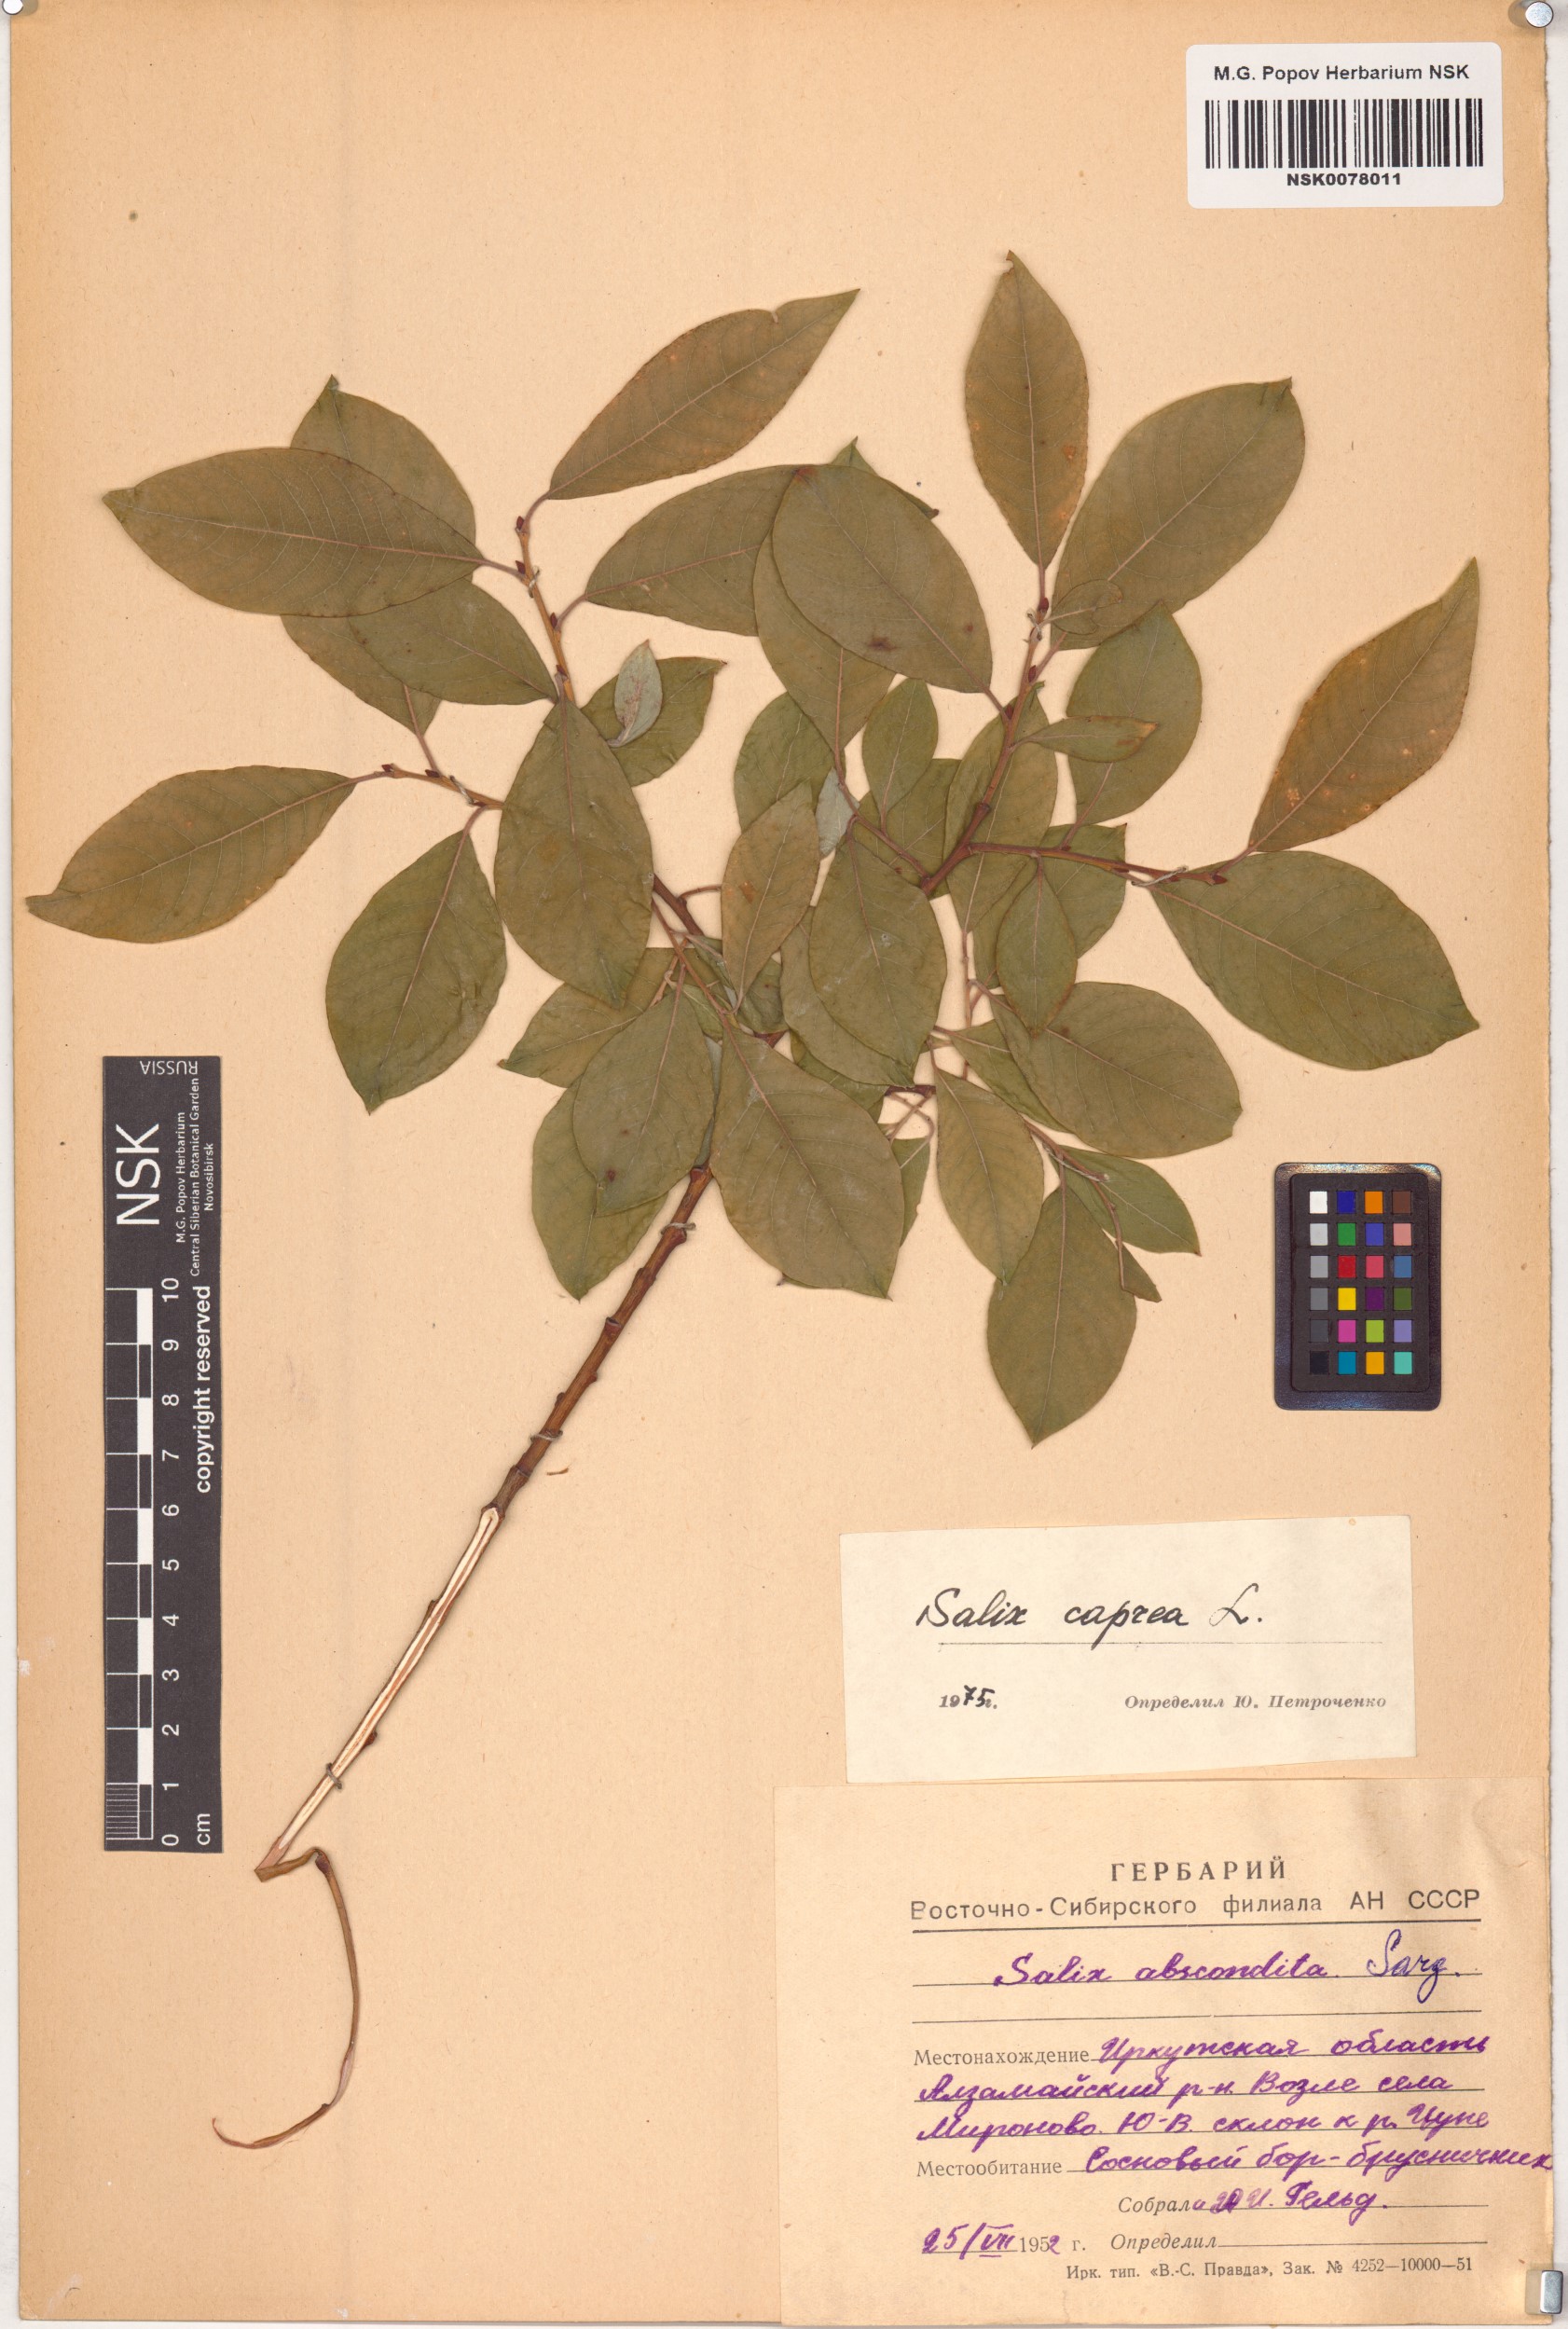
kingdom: Plantae
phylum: Tracheophyta
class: Magnoliopsida
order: Malpighiales
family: Salicaceae
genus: Salix
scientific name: Salix caprea
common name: Goat willow
